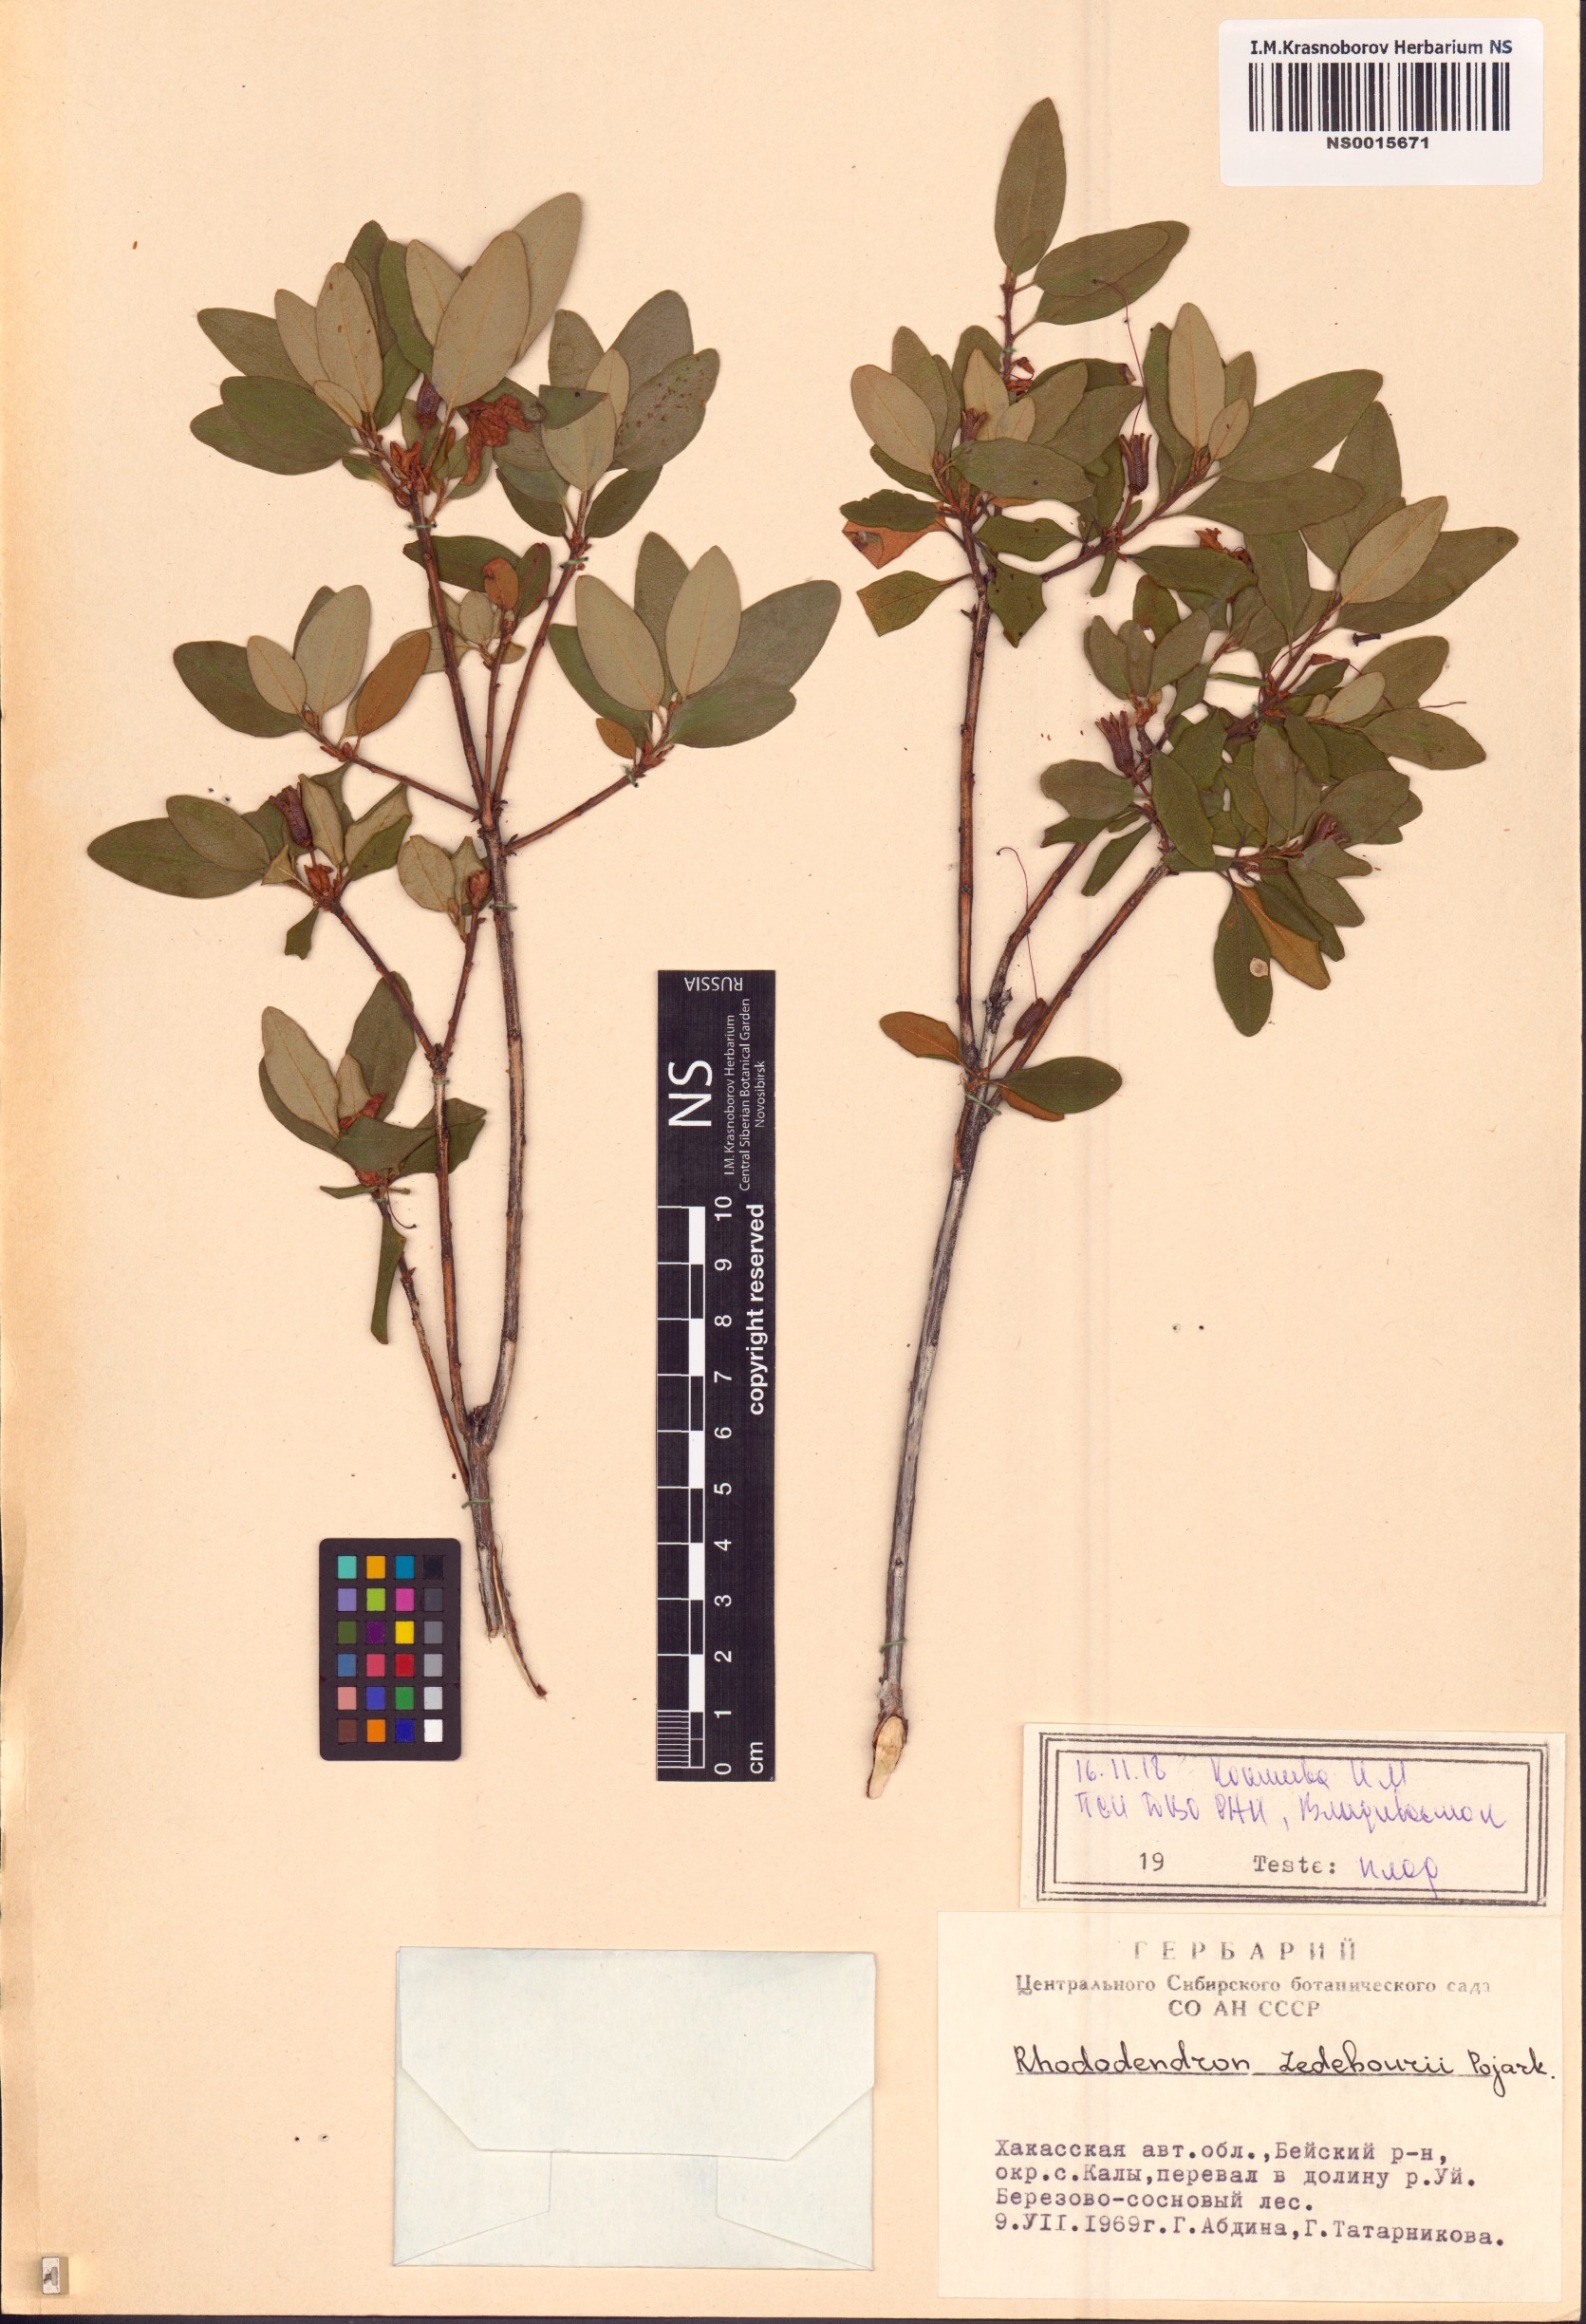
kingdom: Plantae
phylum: Tracheophyta
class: Magnoliopsida
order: Ericales
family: Ericaceae
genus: Rhododendron
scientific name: Rhododendron dauricum
